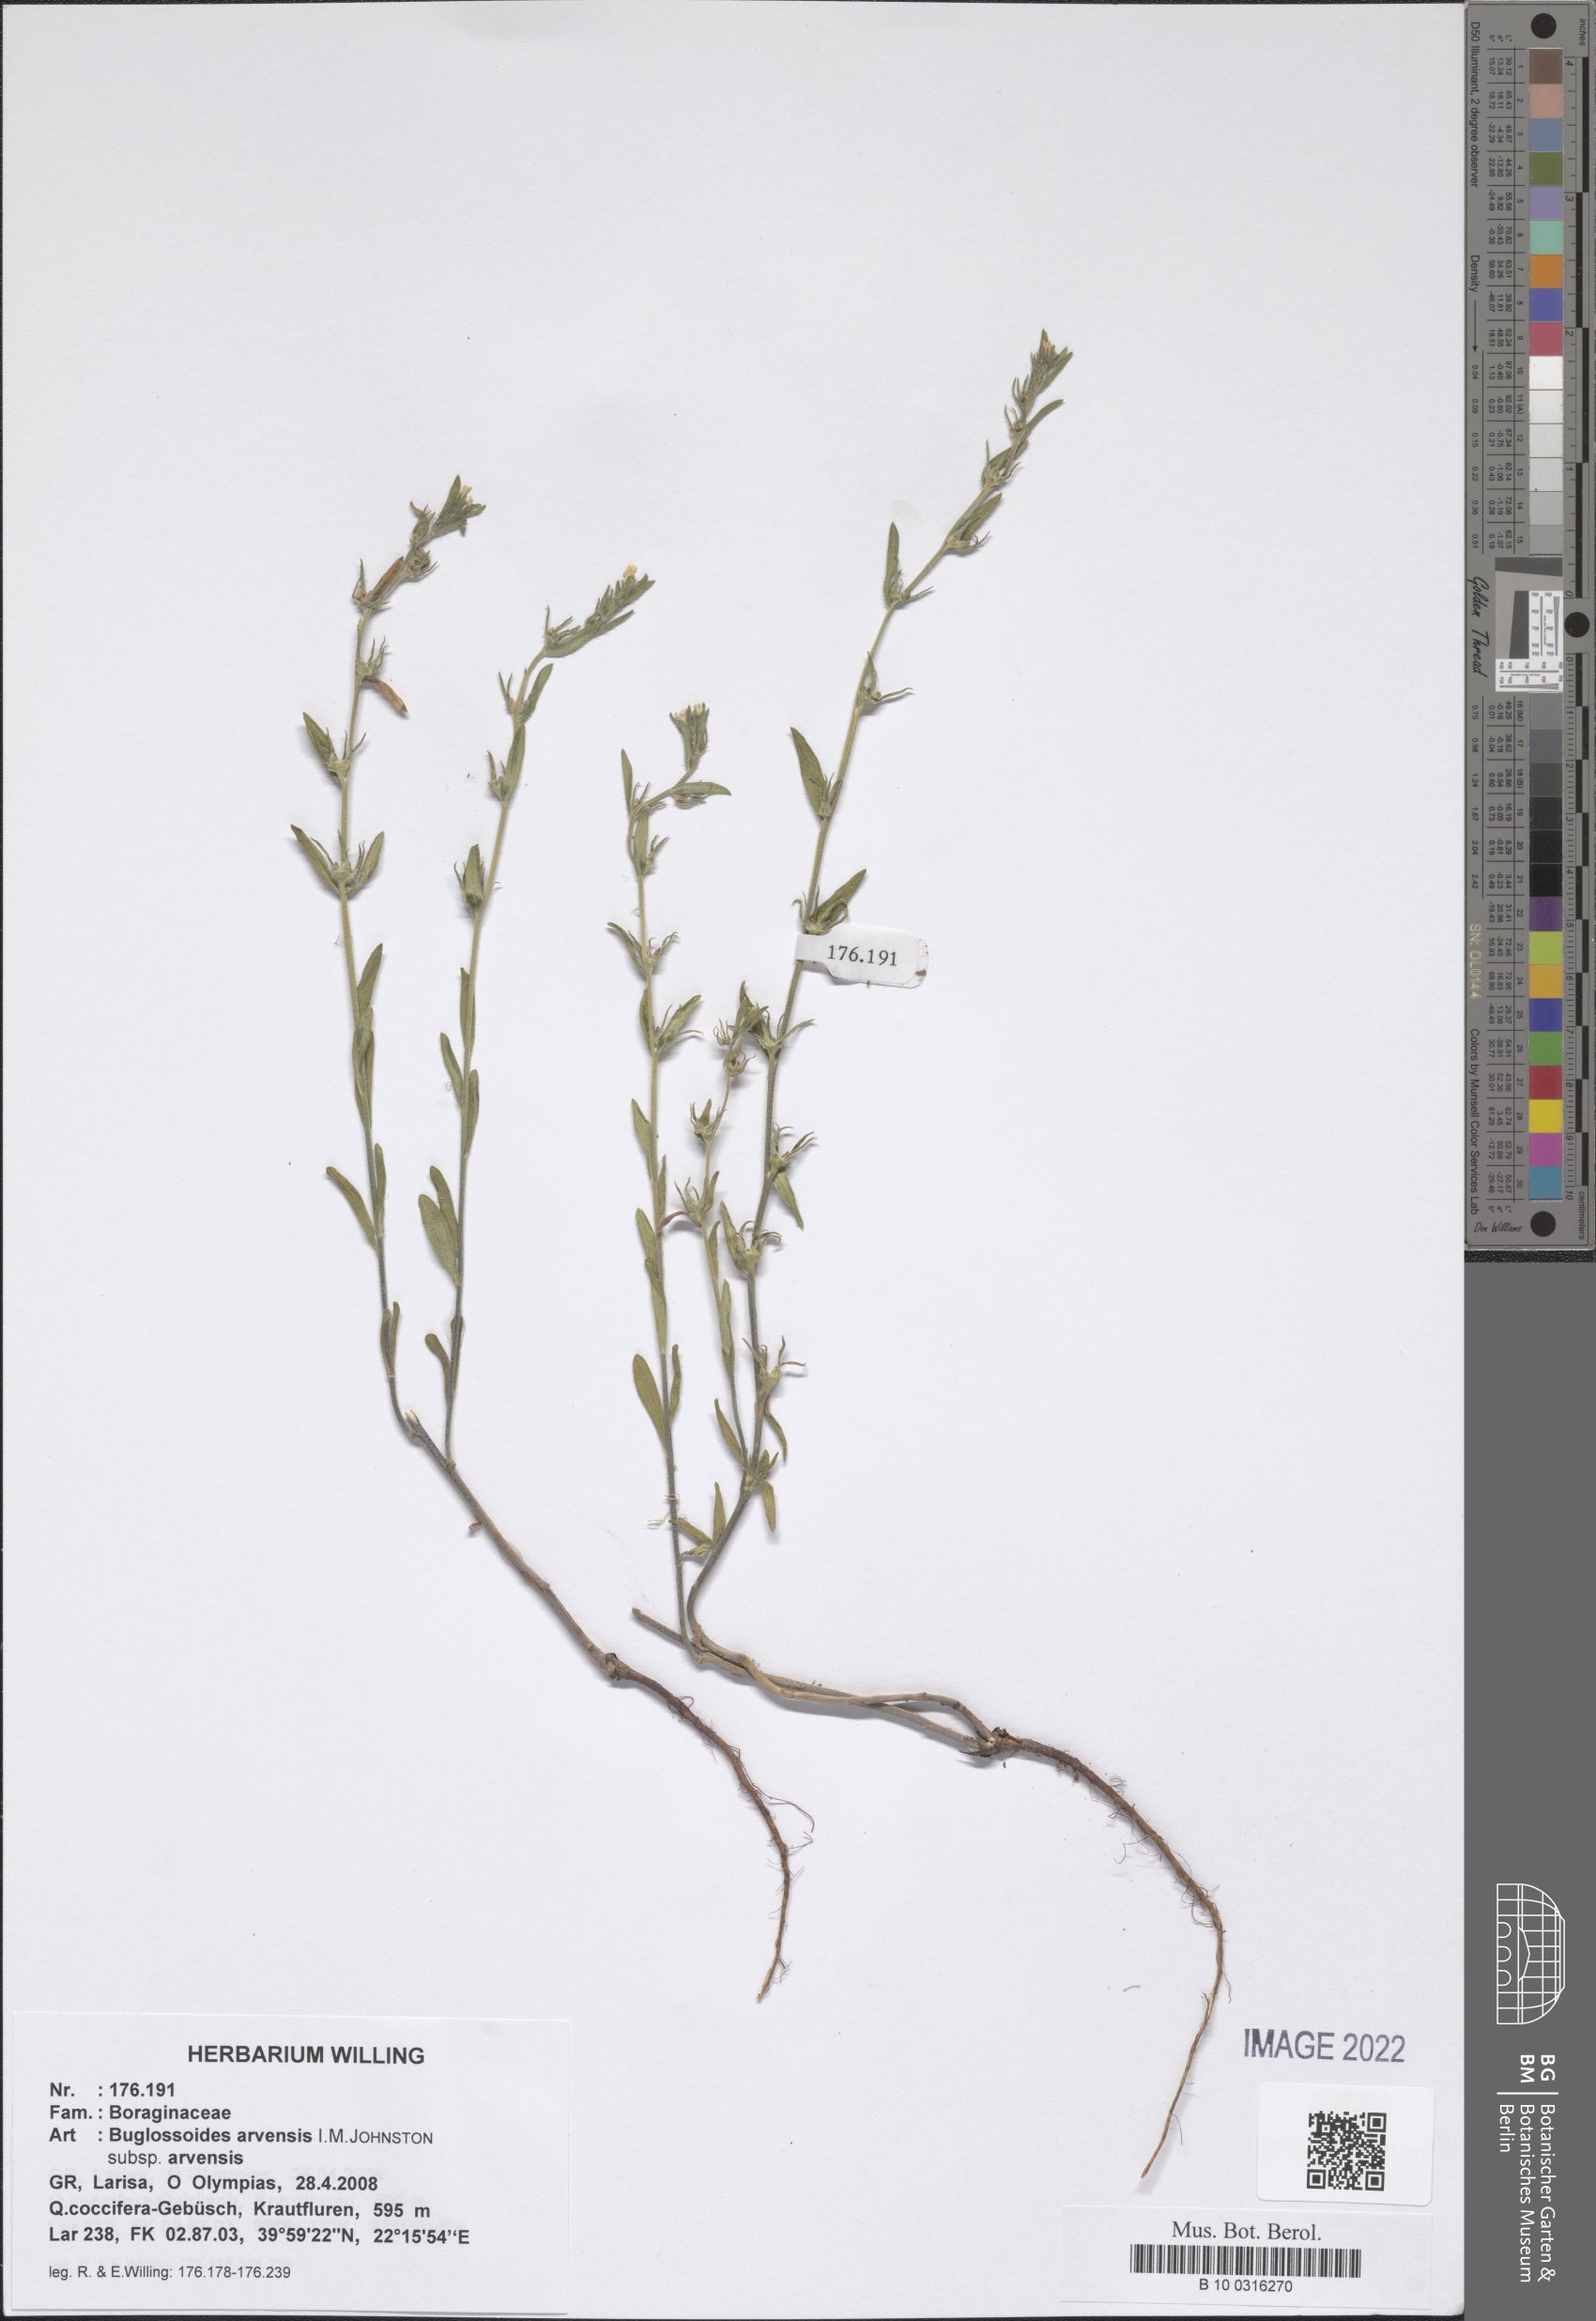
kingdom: Plantae
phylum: Tracheophyta
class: Magnoliopsida
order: Boraginales
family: Boraginaceae
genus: Buglossoides
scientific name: Buglossoides arvensis
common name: Corn gromwell
